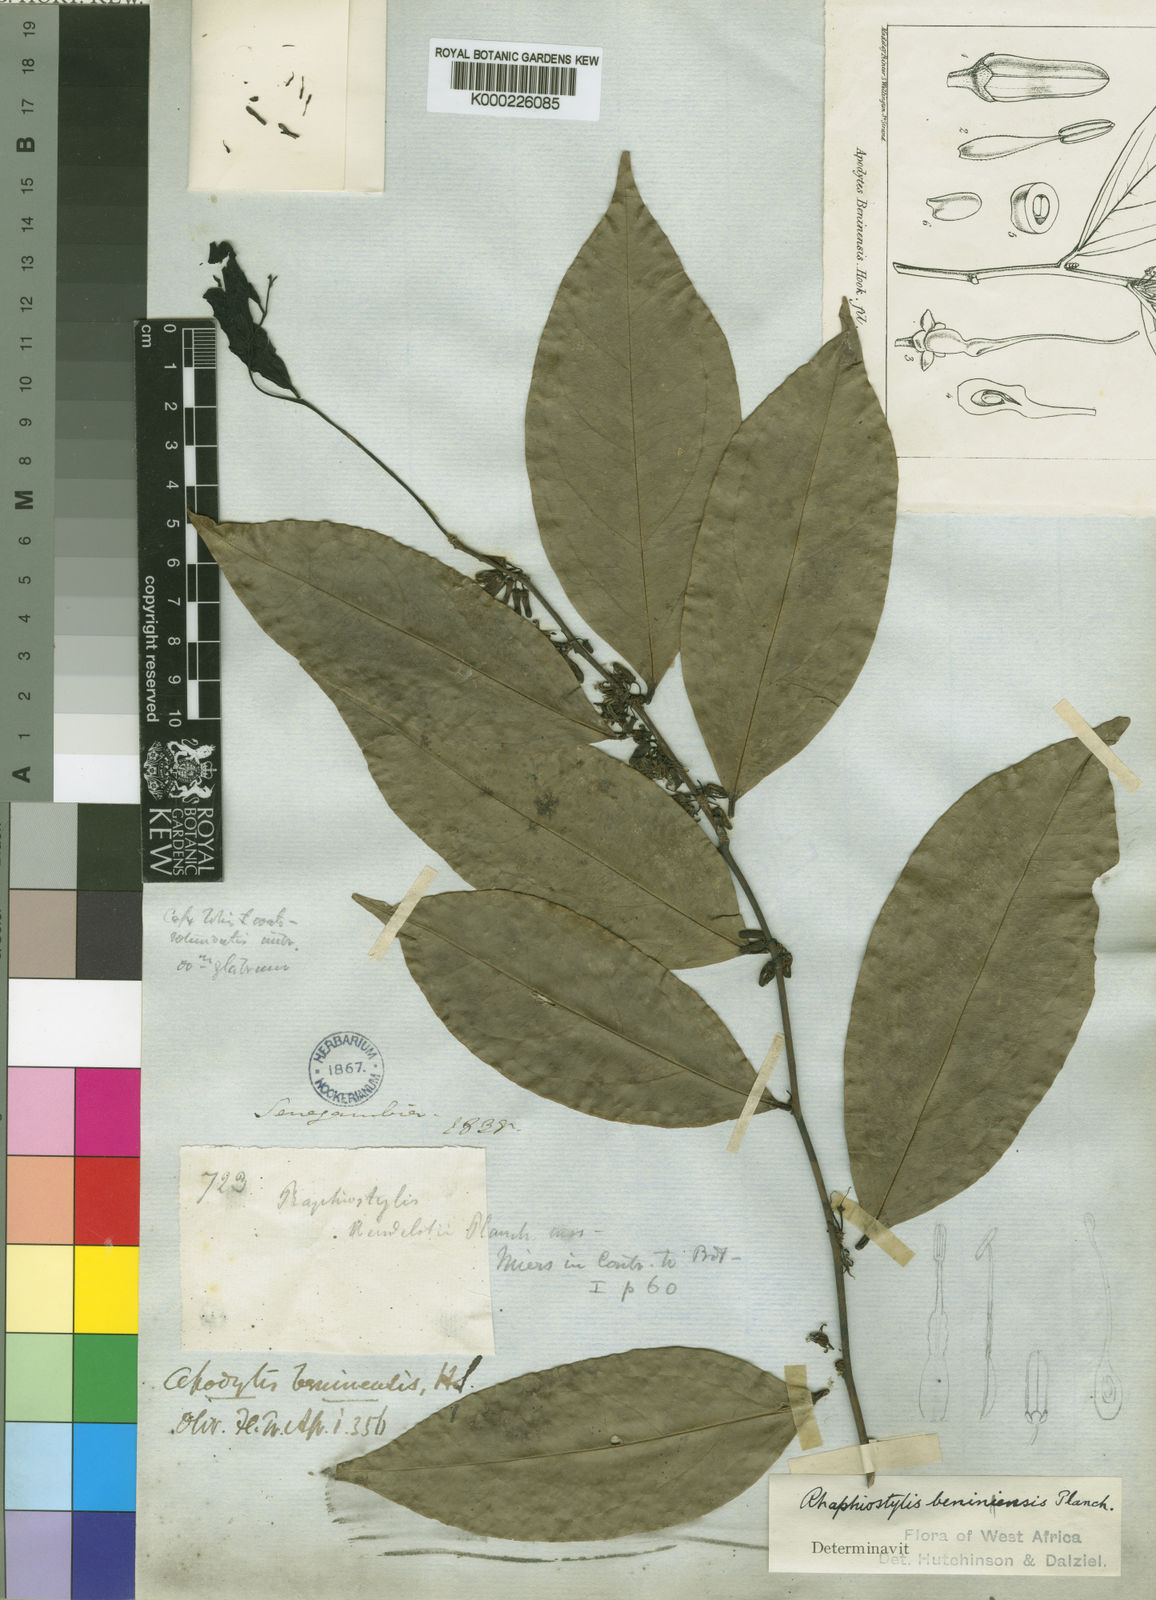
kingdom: Plantae
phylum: Tracheophyta
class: Magnoliopsida
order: Metteniusales
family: Metteniusaceae
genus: Rhaphiostylis
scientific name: Rhaphiostylis beninensis
